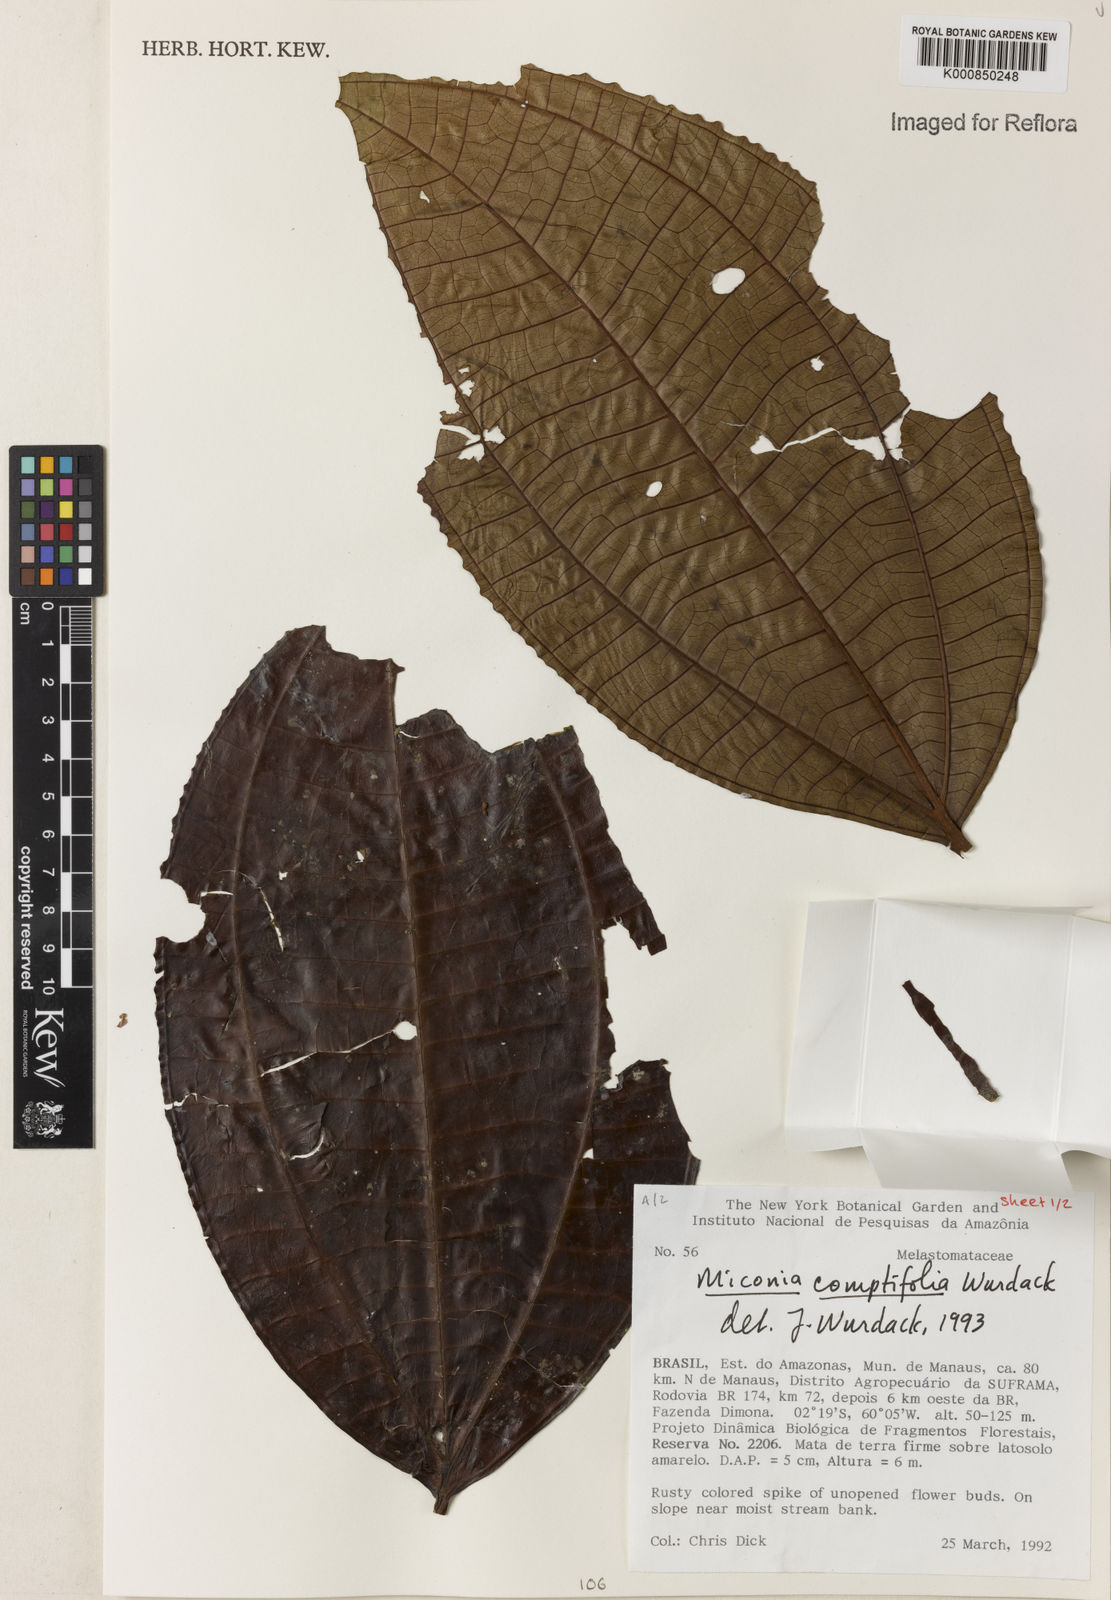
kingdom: Plantae
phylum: Tracheophyta
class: Magnoliopsida
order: Myrtales
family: Melastomataceae
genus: Miconia
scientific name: Miconia comptifolia
